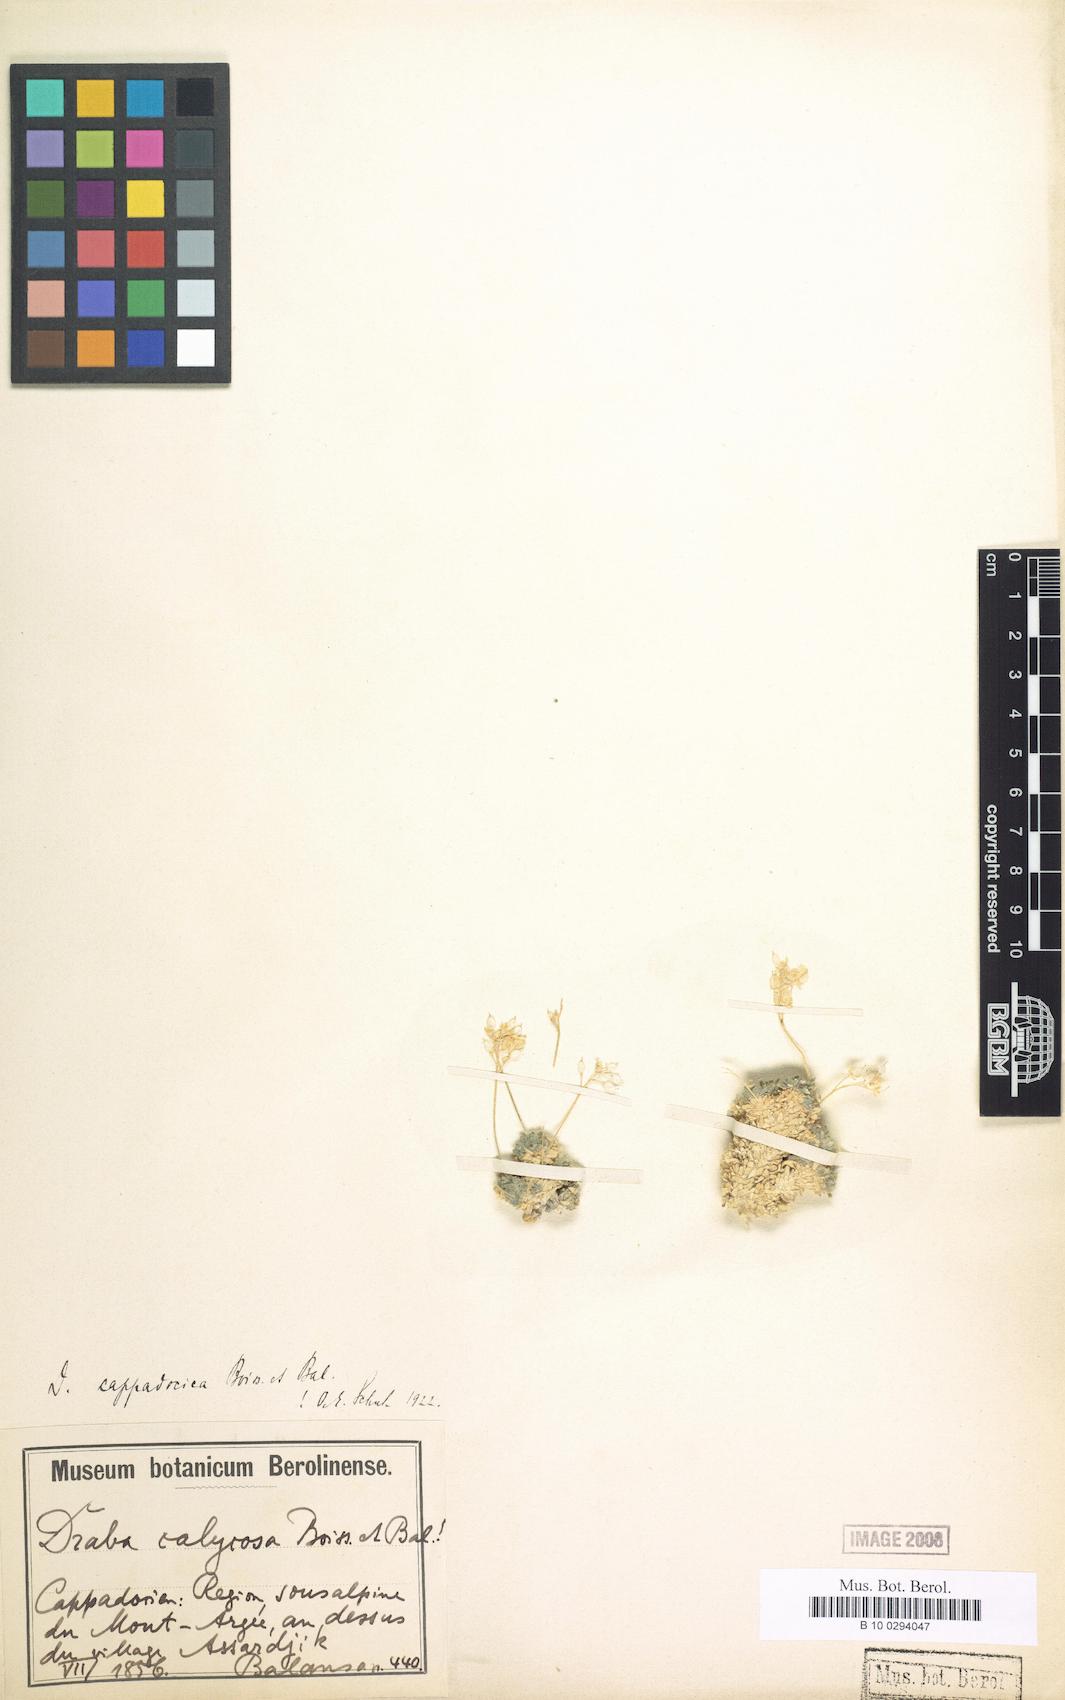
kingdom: Plantae
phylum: Tracheophyta
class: Magnoliopsida
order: Brassicales
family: Brassicaceae
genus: Draba
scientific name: Draba cappadocica
